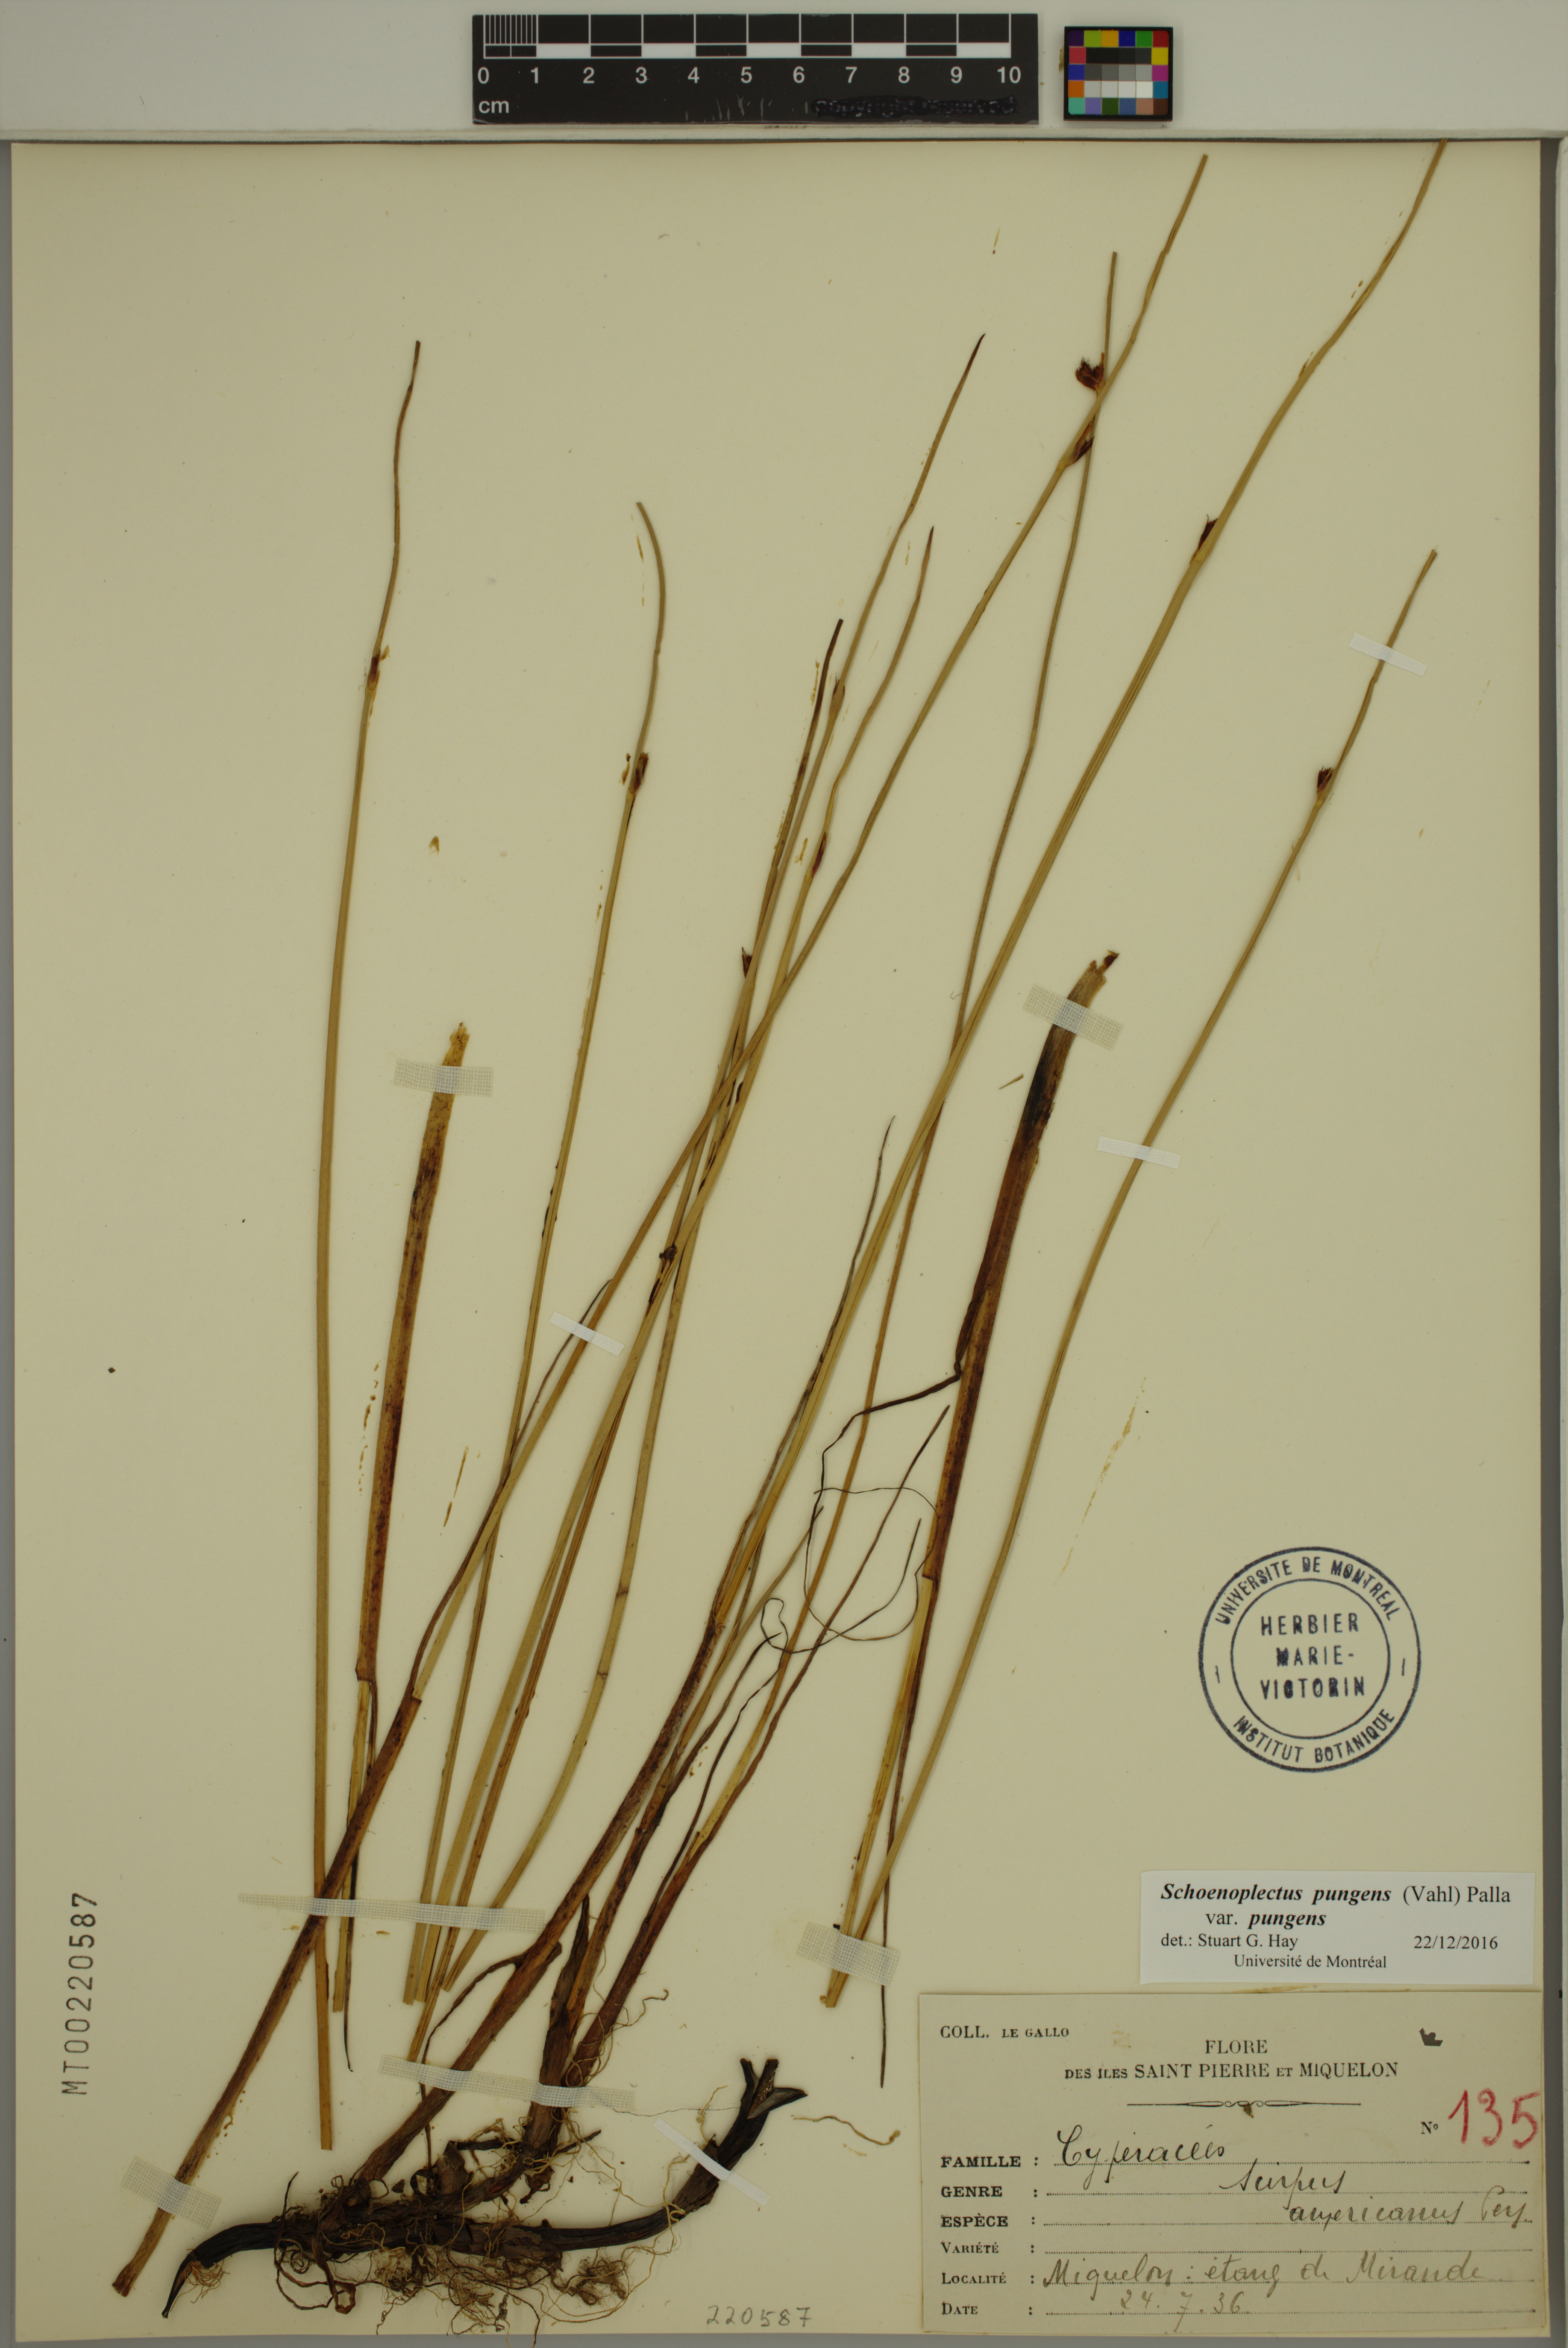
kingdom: Plantae
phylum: Tracheophyta
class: Liliopsida
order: Poales
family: Cyperaceae
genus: Schoenoplectus
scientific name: Schoenoplectus pungens
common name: Sharp club-rush
